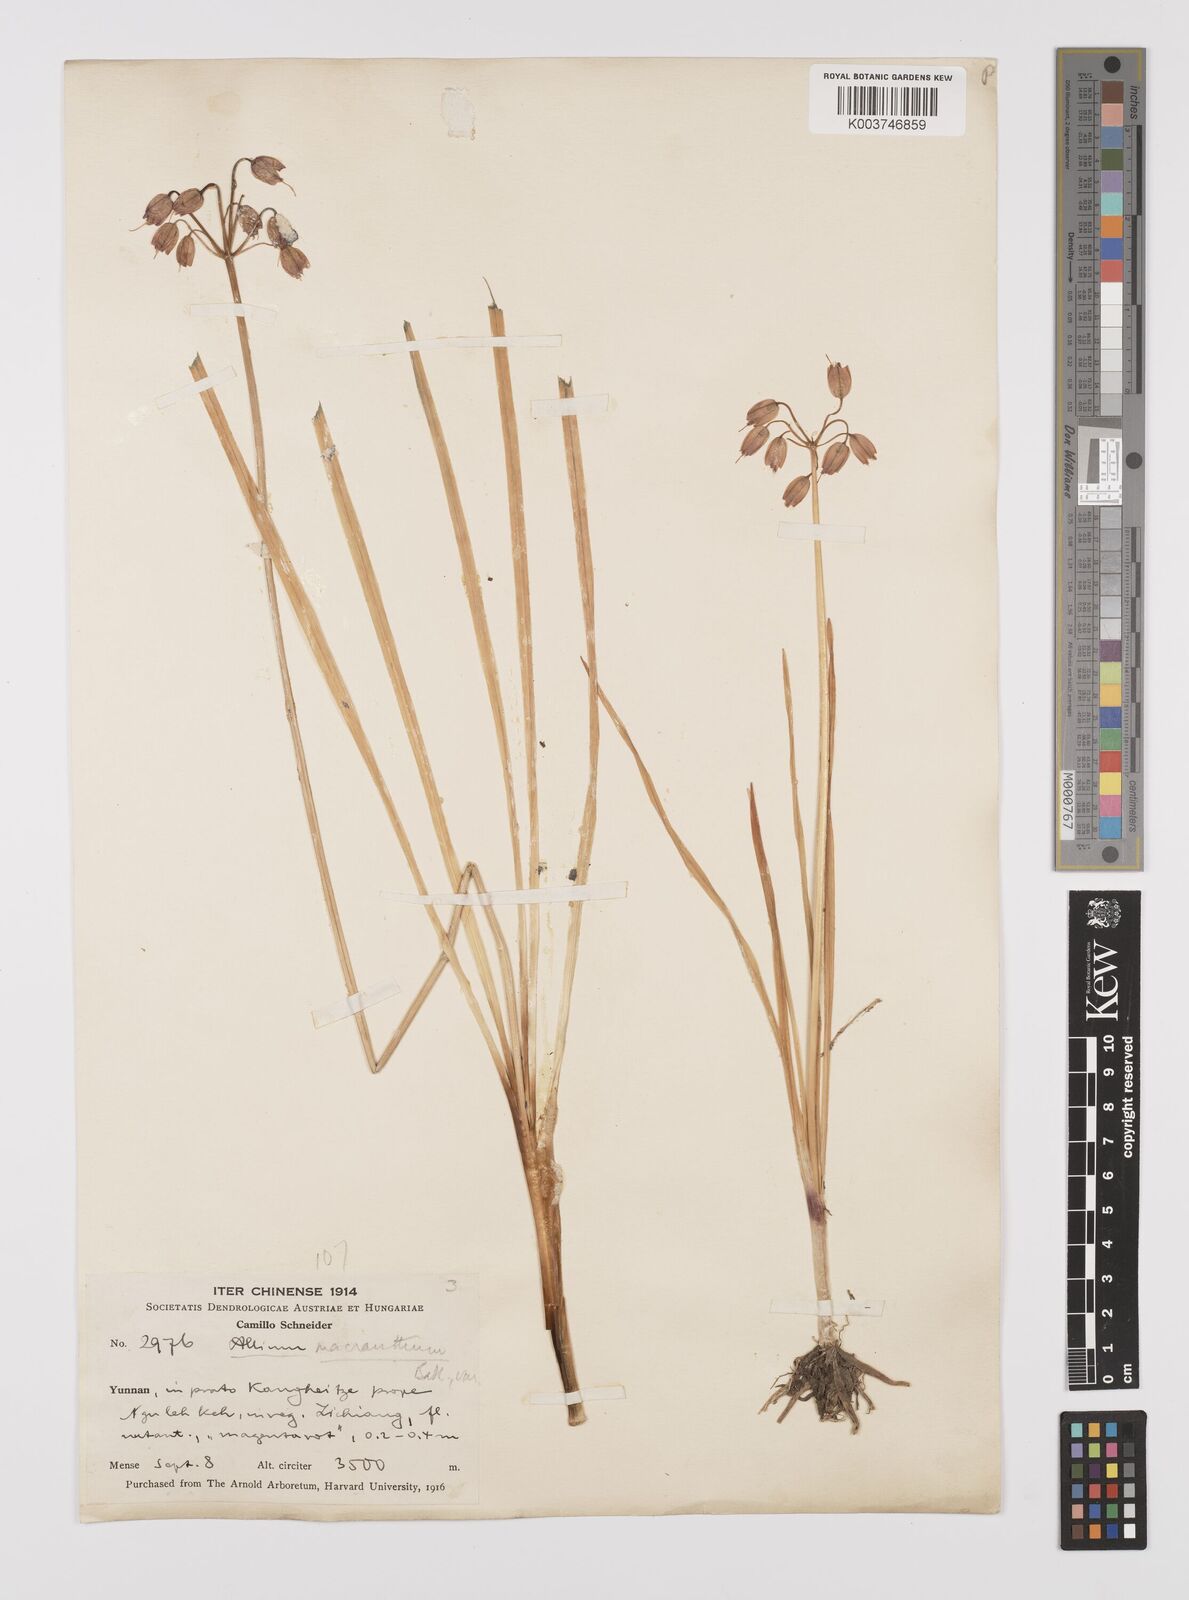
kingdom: Plantae
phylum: Tracheophyta
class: Liliopsida
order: Asparagales
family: Amaryllidaceae
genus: Allium
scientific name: Allium macranthum
